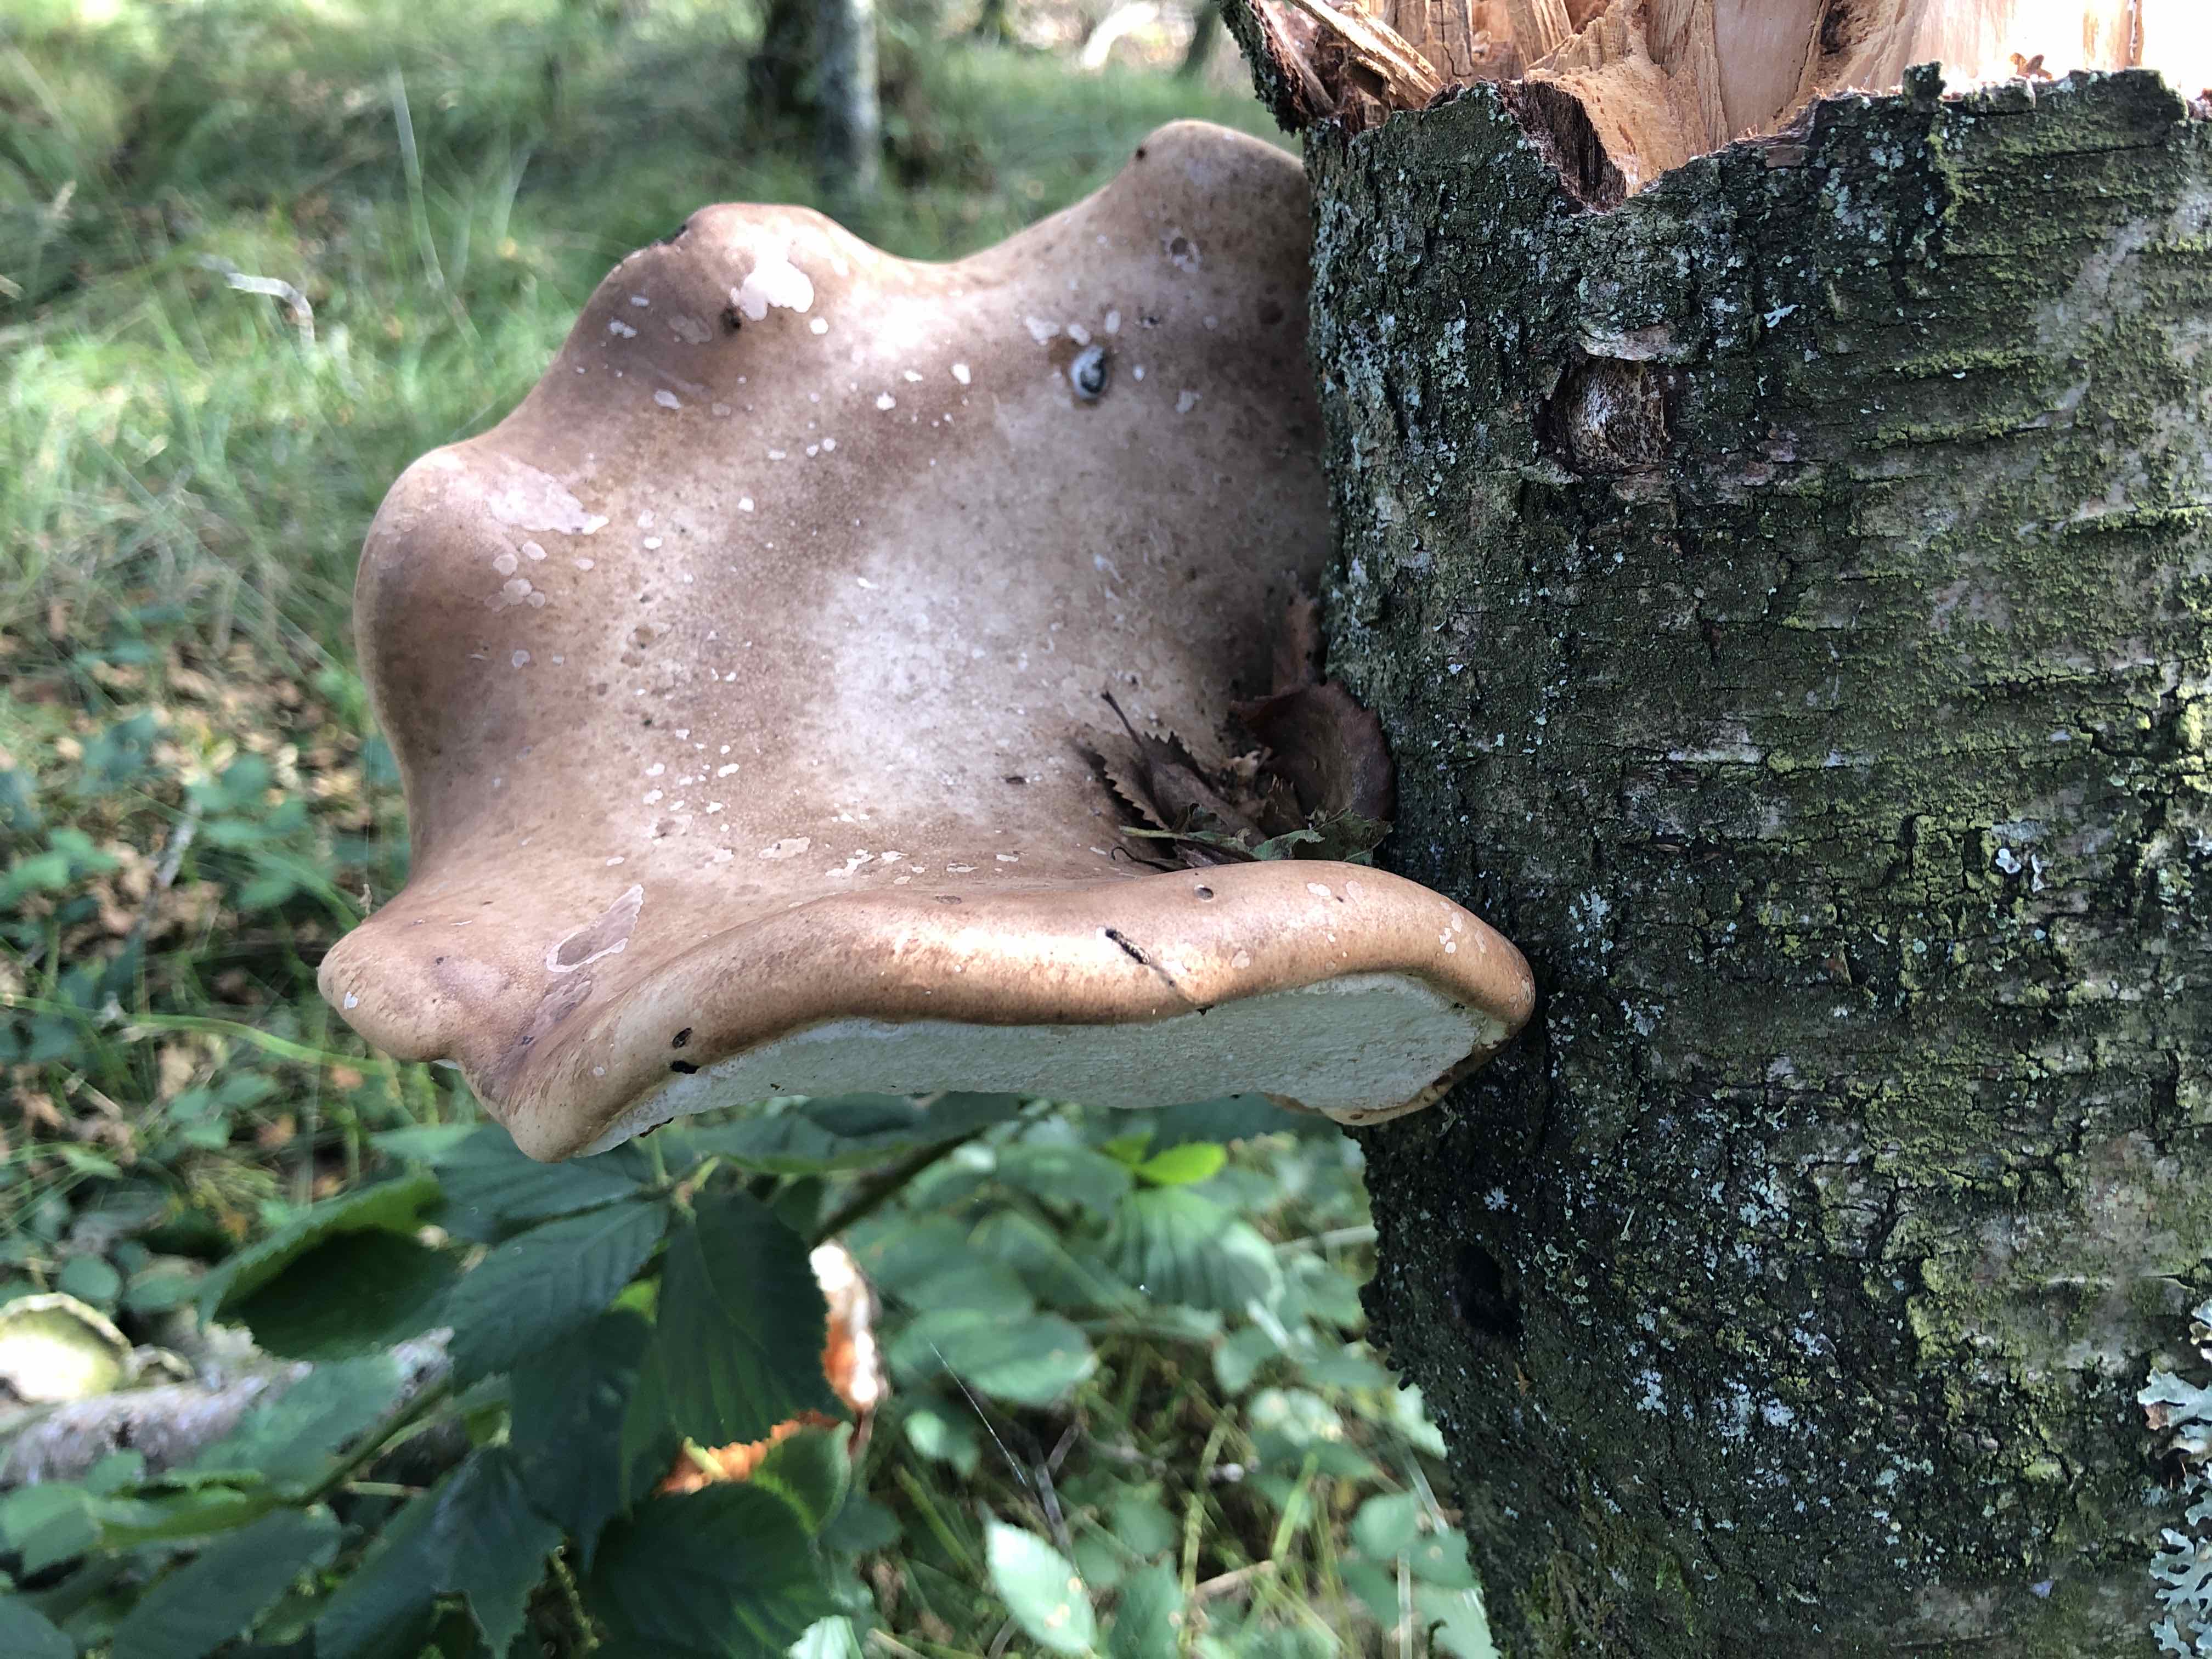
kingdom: Fungi
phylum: Basidiomycota
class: Agaricomycetes
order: Polyporales
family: Fomitopsidaceae
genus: Fomitopsis
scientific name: Fomitopsis betulina
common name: birkeporesvamp
